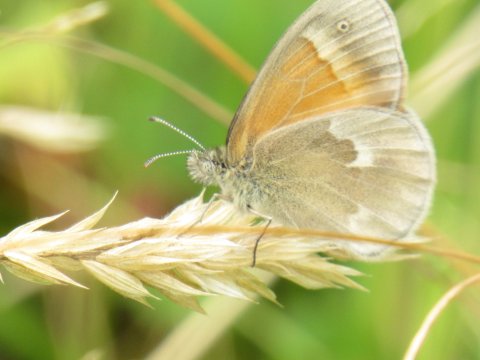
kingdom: Animalia
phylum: Arthropoda
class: Insecta
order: Lepidoptera
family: Nymphalidae
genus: Coenonympha
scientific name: Coenonympha tullia
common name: Large Heath
